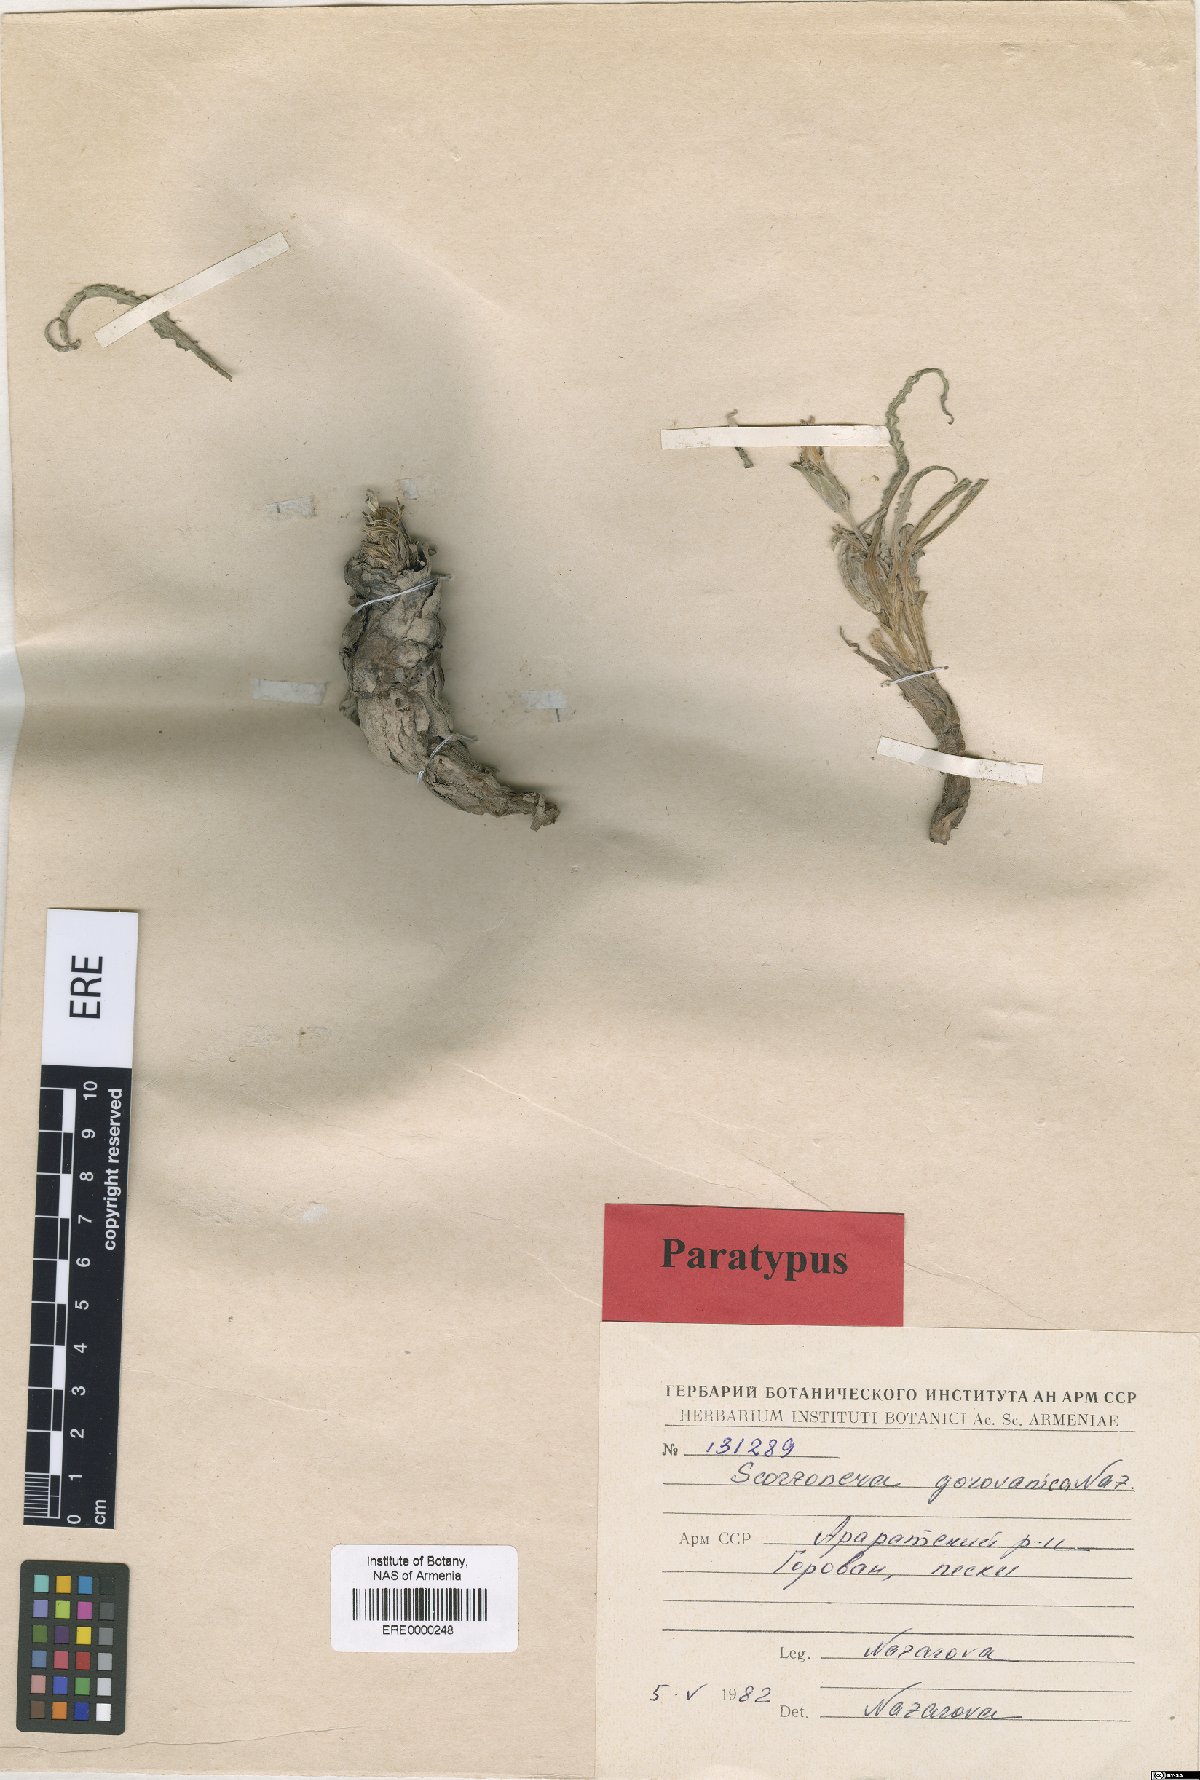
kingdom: Plantae
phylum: Tracheophyta
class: Magnoliopsida
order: Asterales
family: Asteraceae
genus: Scorzonera
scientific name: Scorzonera gorovanica
